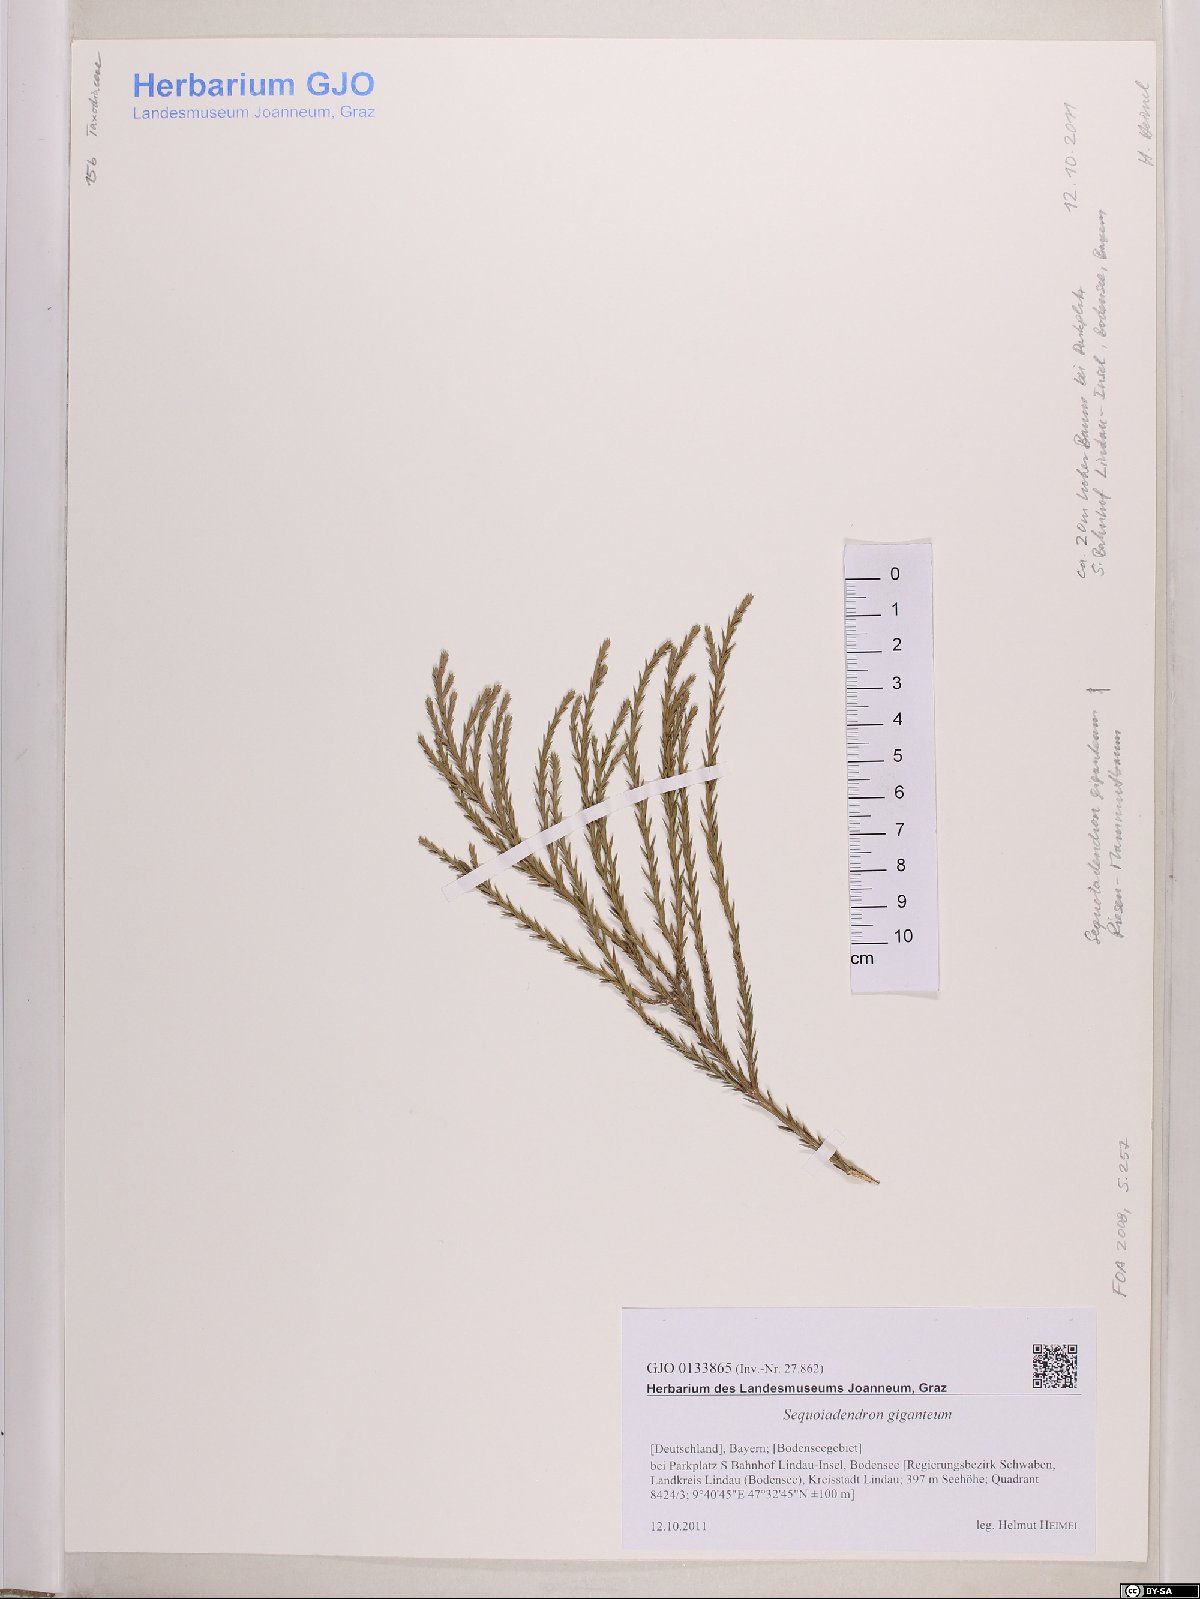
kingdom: Plantae
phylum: Tracheophyta
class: Pinopsida
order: Pinales
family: Cupressaceae
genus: Sequoiadendron
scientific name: Sequoiadendron giganteum
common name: Wellingtonia
